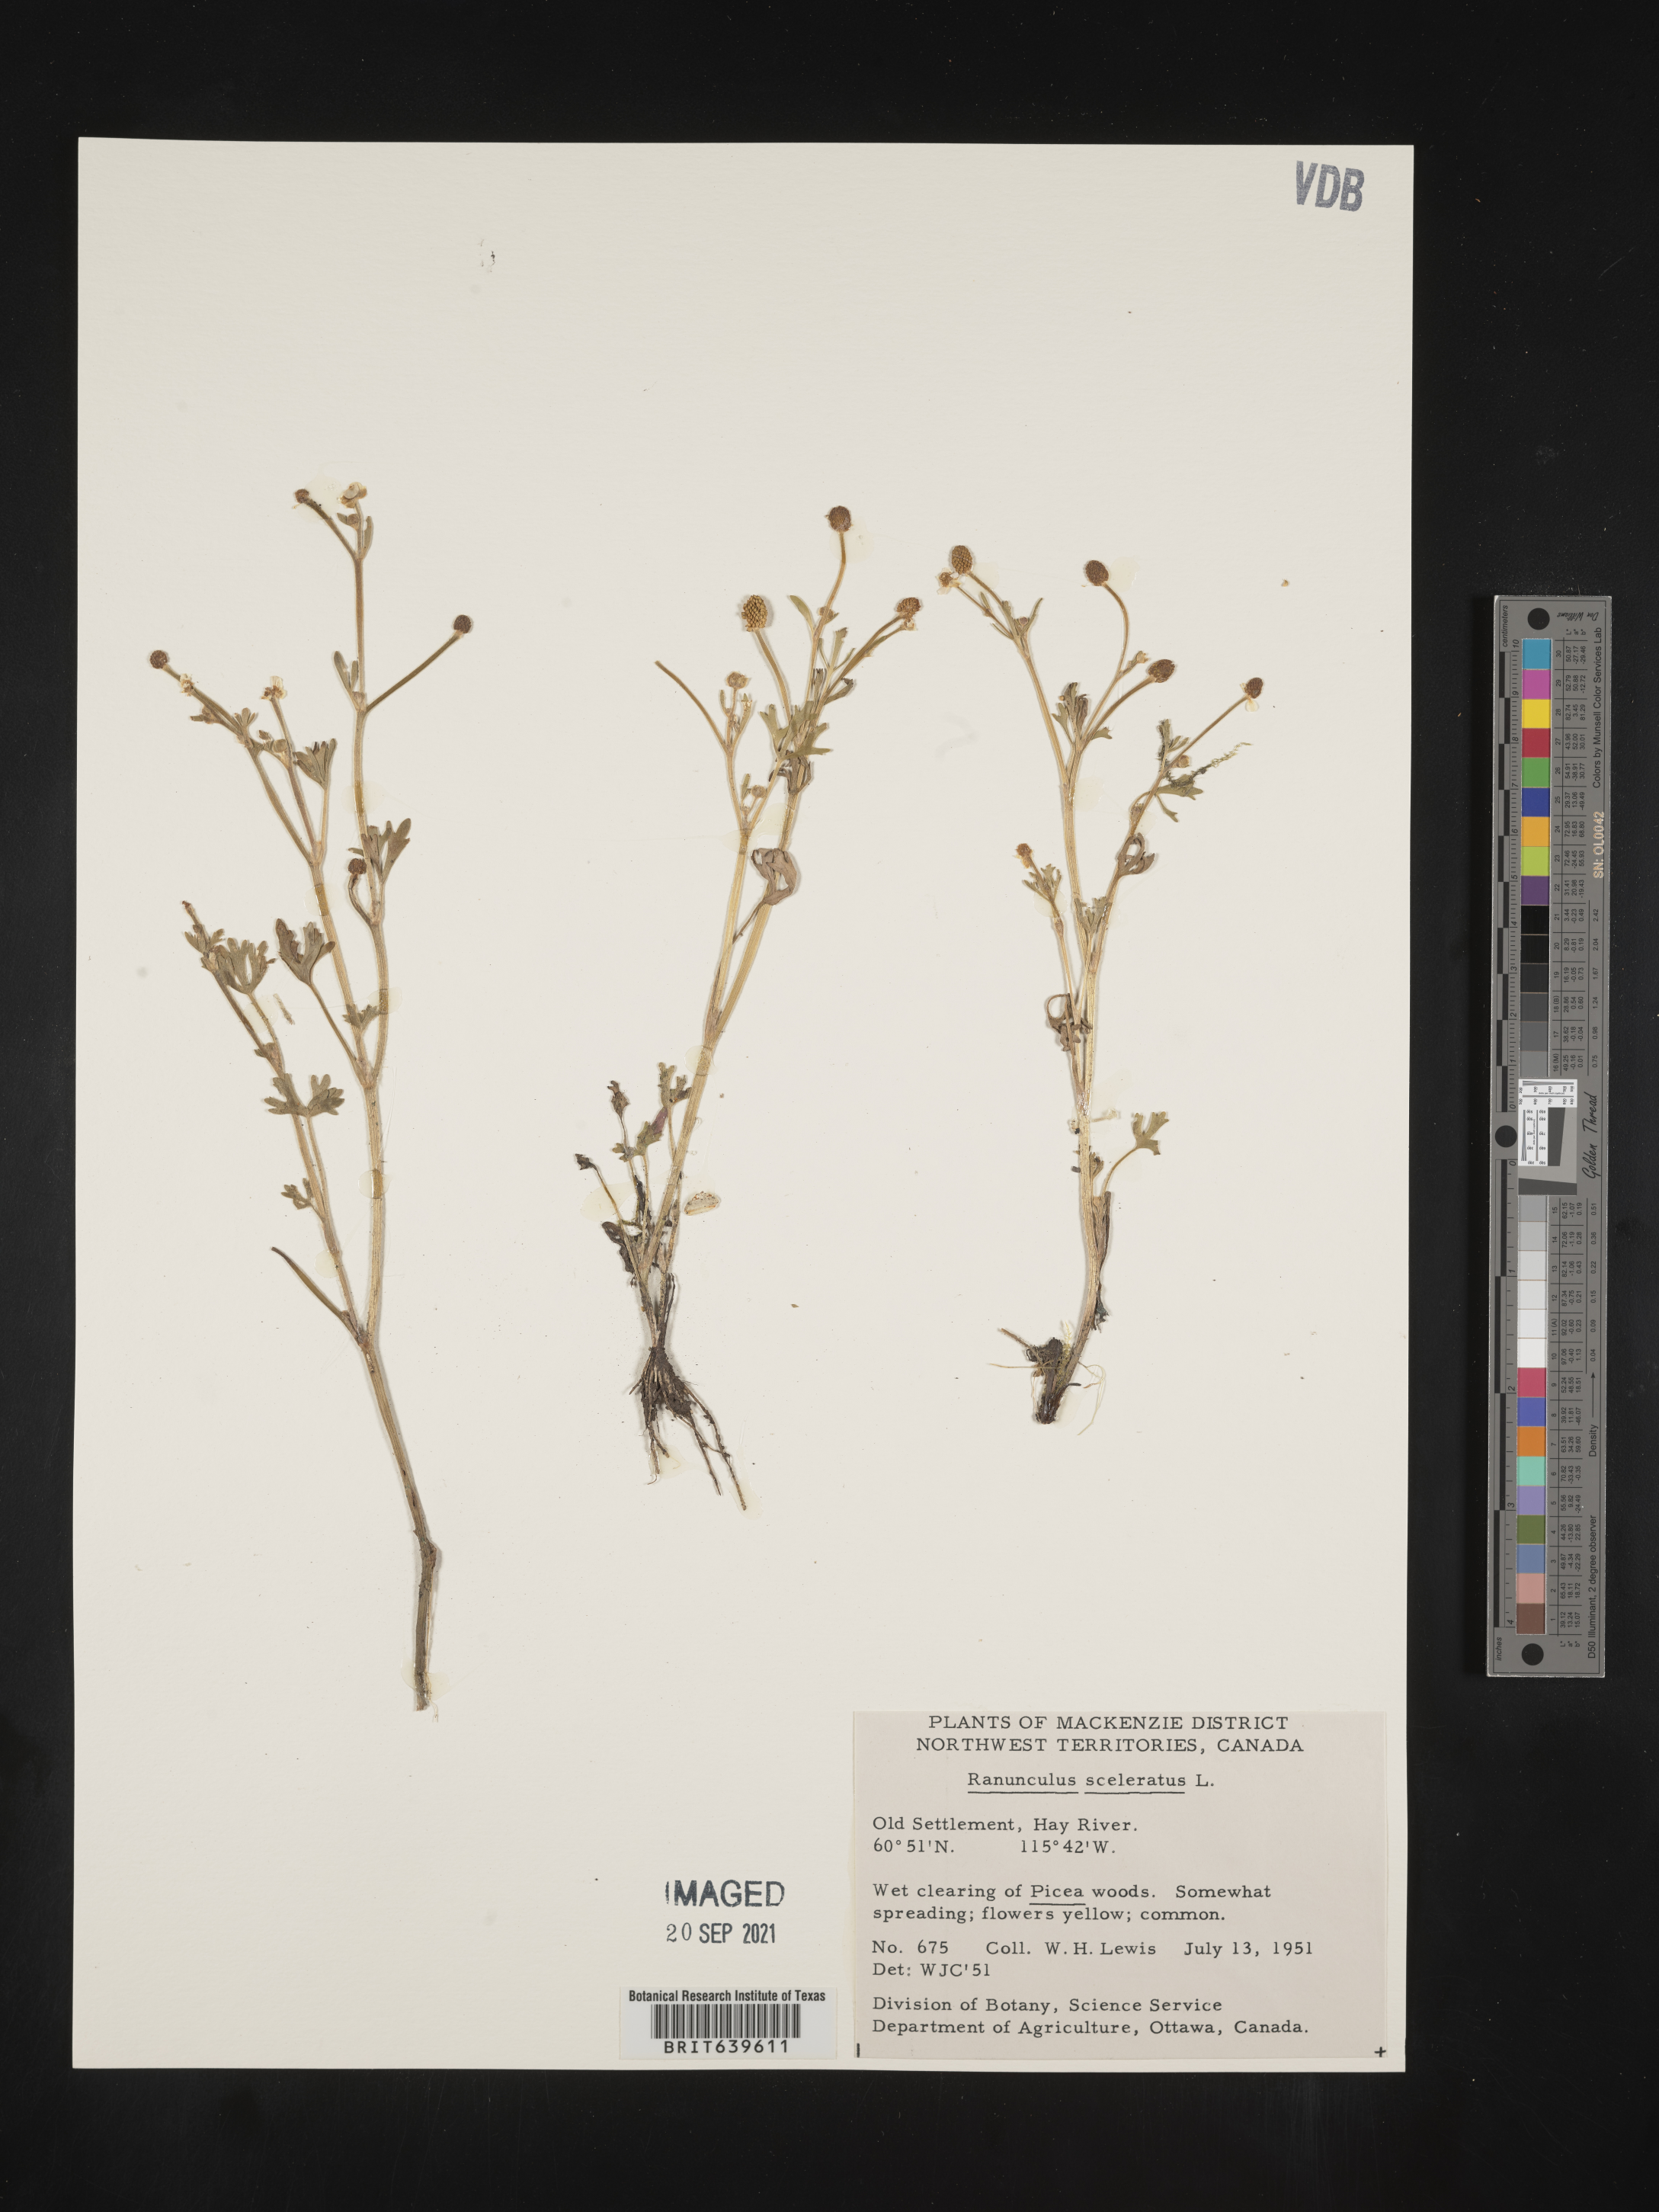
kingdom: Plantae
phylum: Tracheophyta
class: Magnoliopsida
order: Ranunculales
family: Ranunculaceae
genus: Ranunculus
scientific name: Ranunculus
